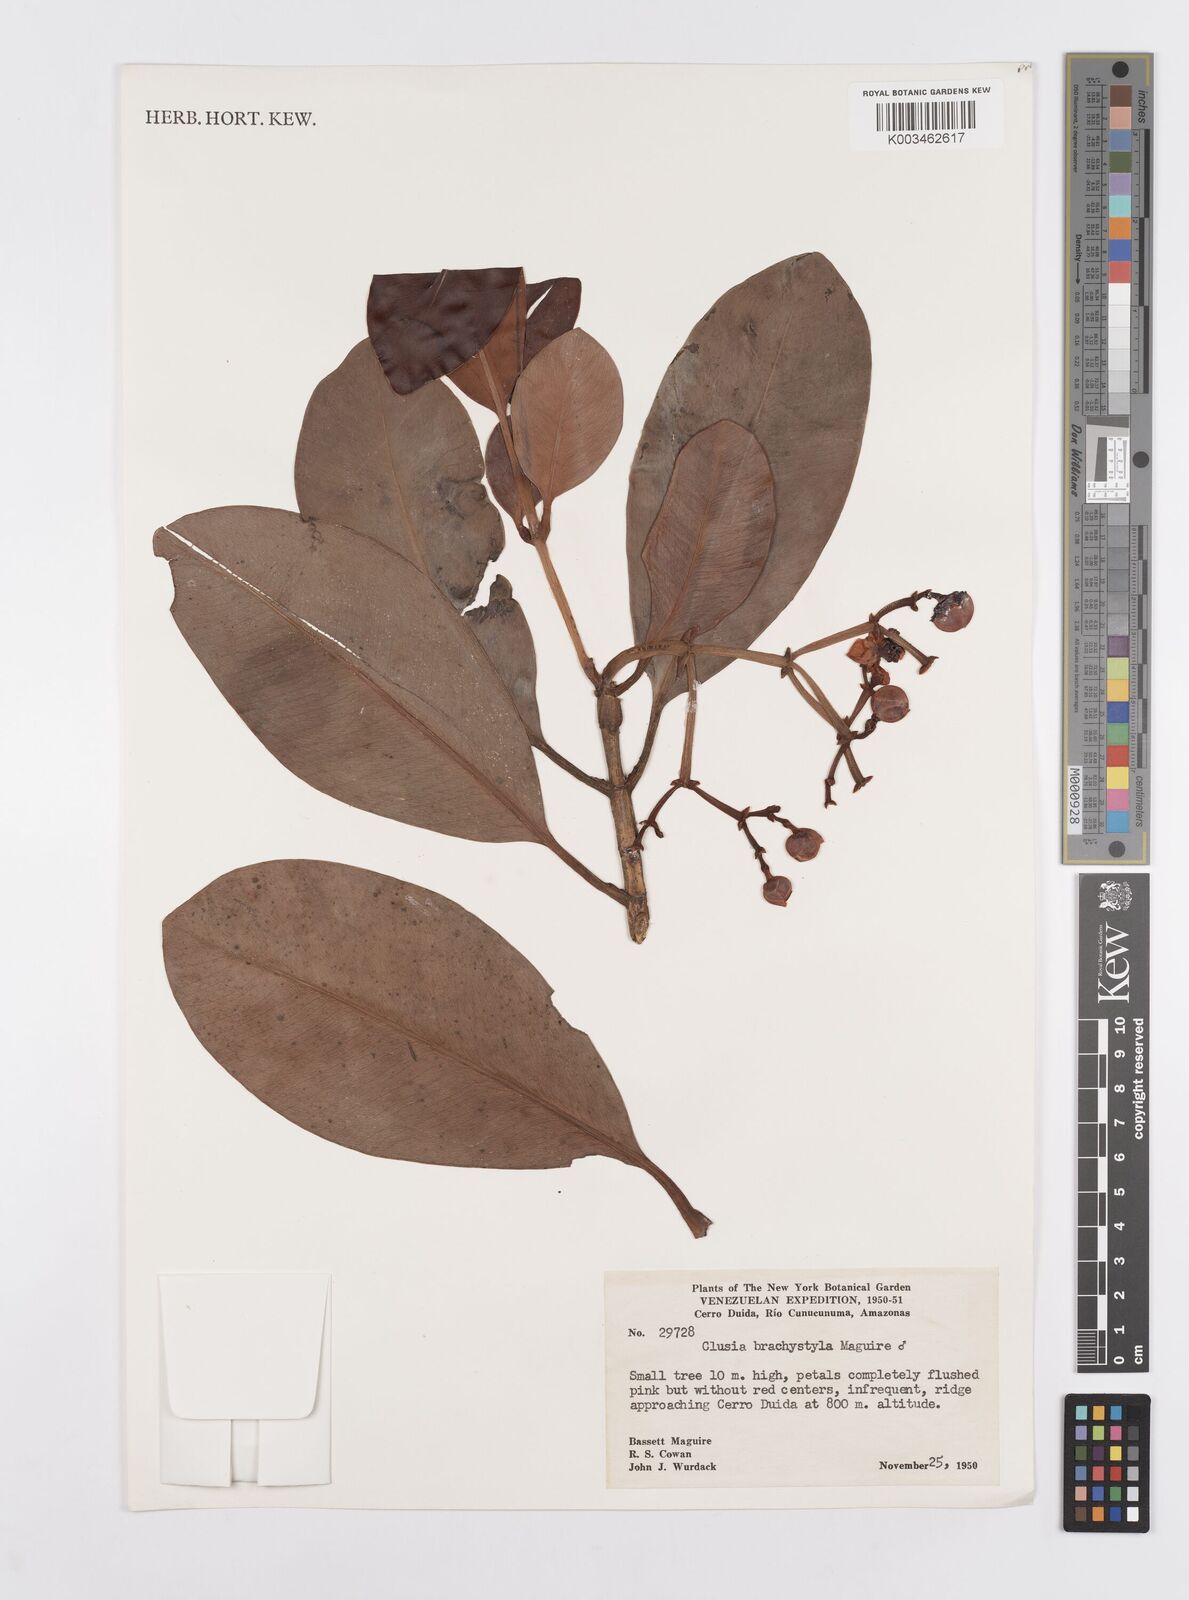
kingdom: Plantae
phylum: Tracheophyta
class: Magnoliopsida
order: Malpighiales
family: Clusiaceae
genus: Clusia
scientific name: Clusia brachystyla
